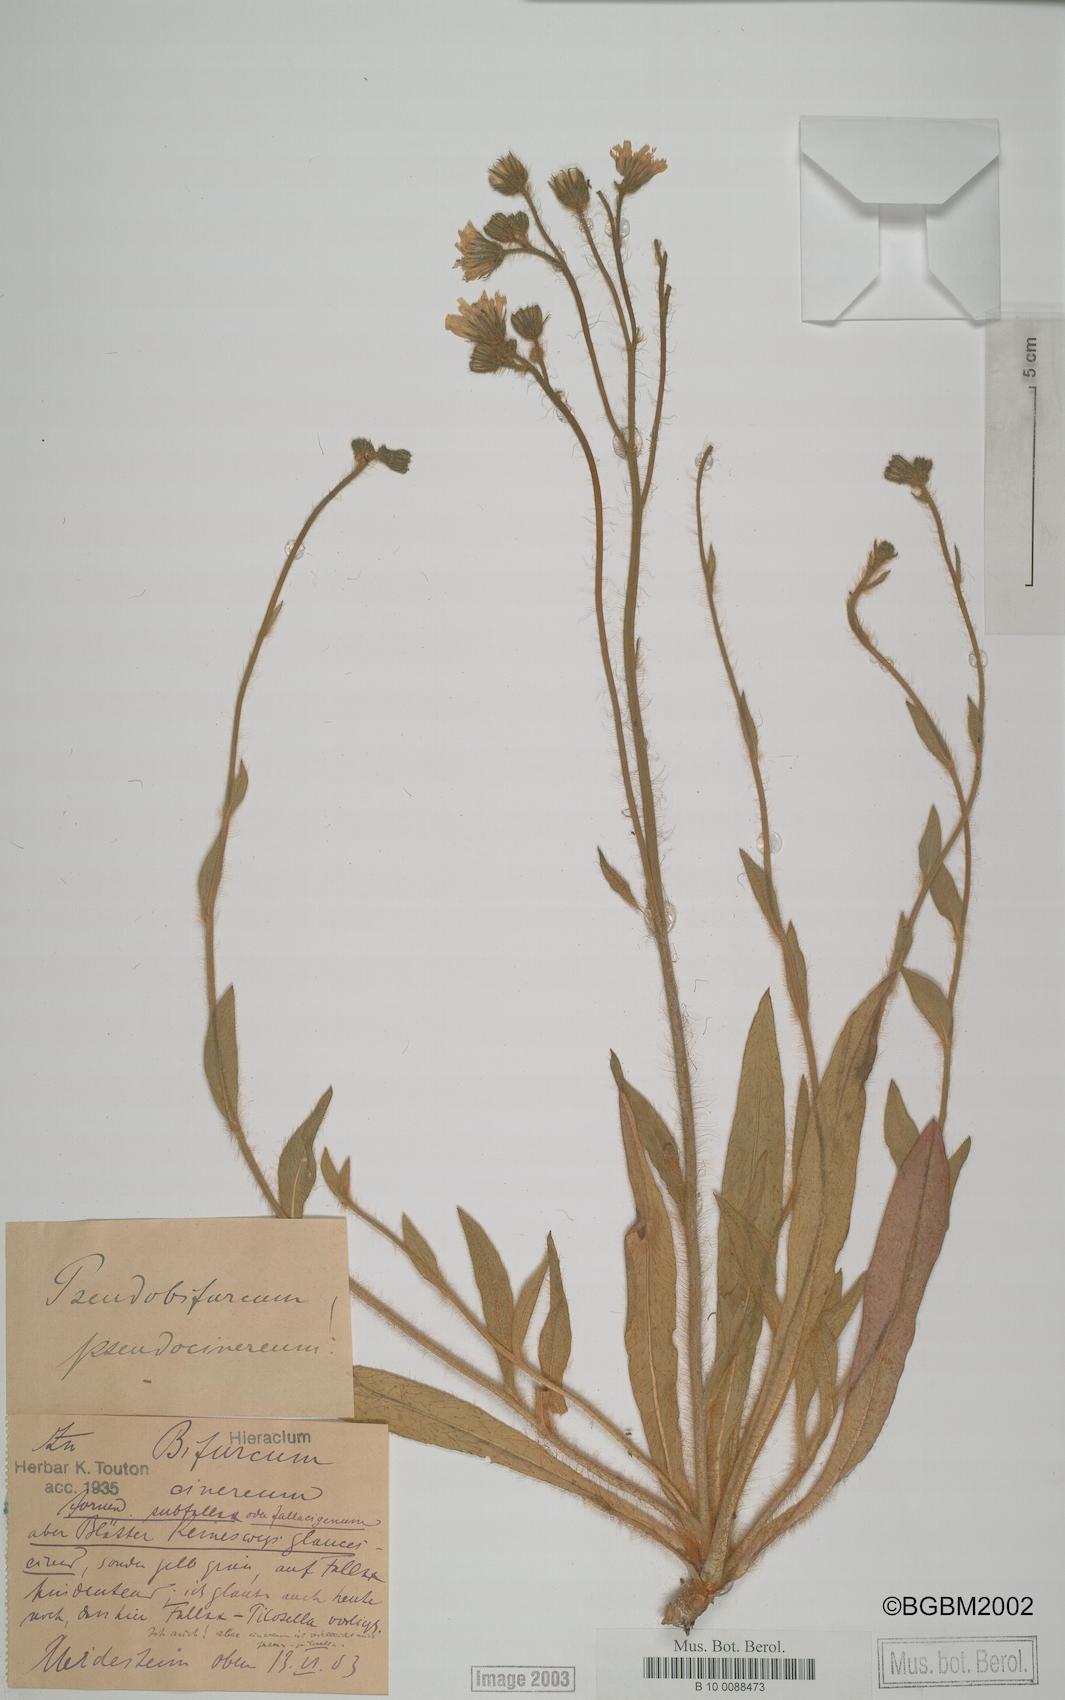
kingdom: Plantae
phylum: Tracheophyta
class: Magnoliopsida
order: Asterales
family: Asteraceae
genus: Pilosella
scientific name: Pilosella cinereiformis
